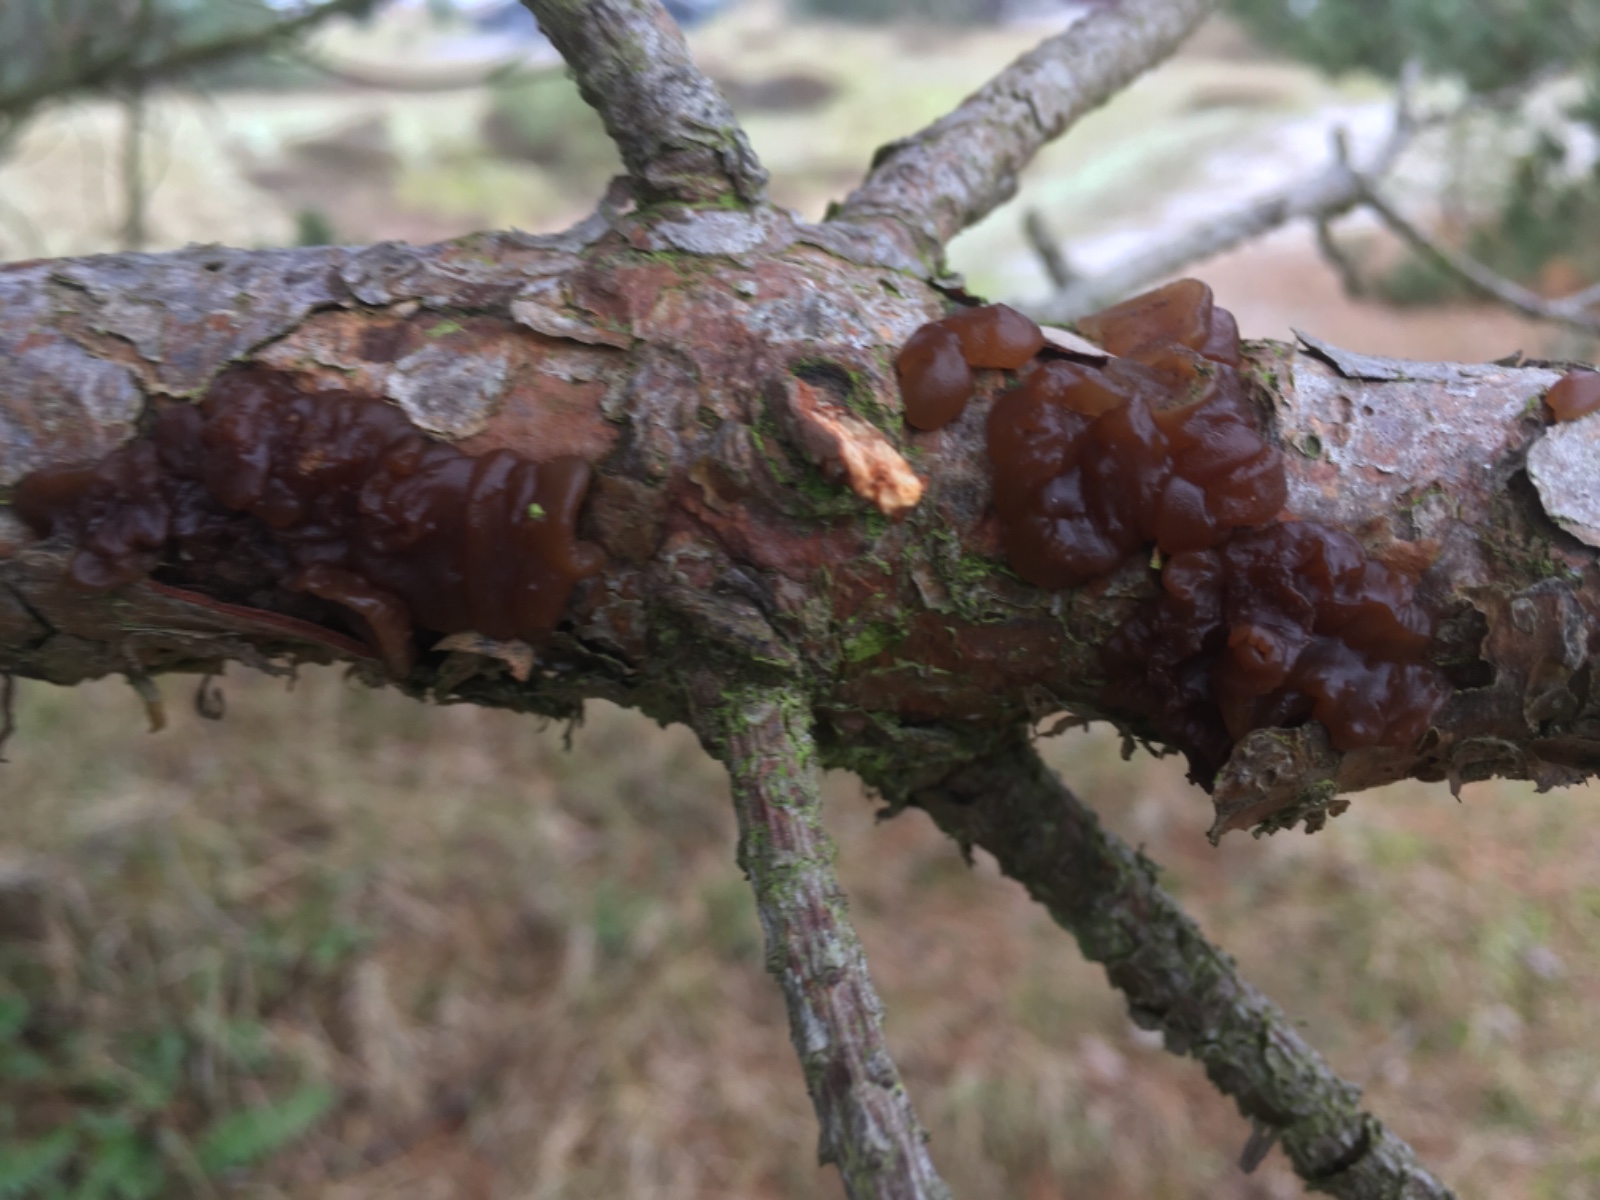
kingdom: Fungi
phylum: Basidiomycota
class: Agaricomycetes
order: Auriculariales
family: Auriculariaceae
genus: Exidia
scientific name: Exidia saccharina
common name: kandis-bævretop
